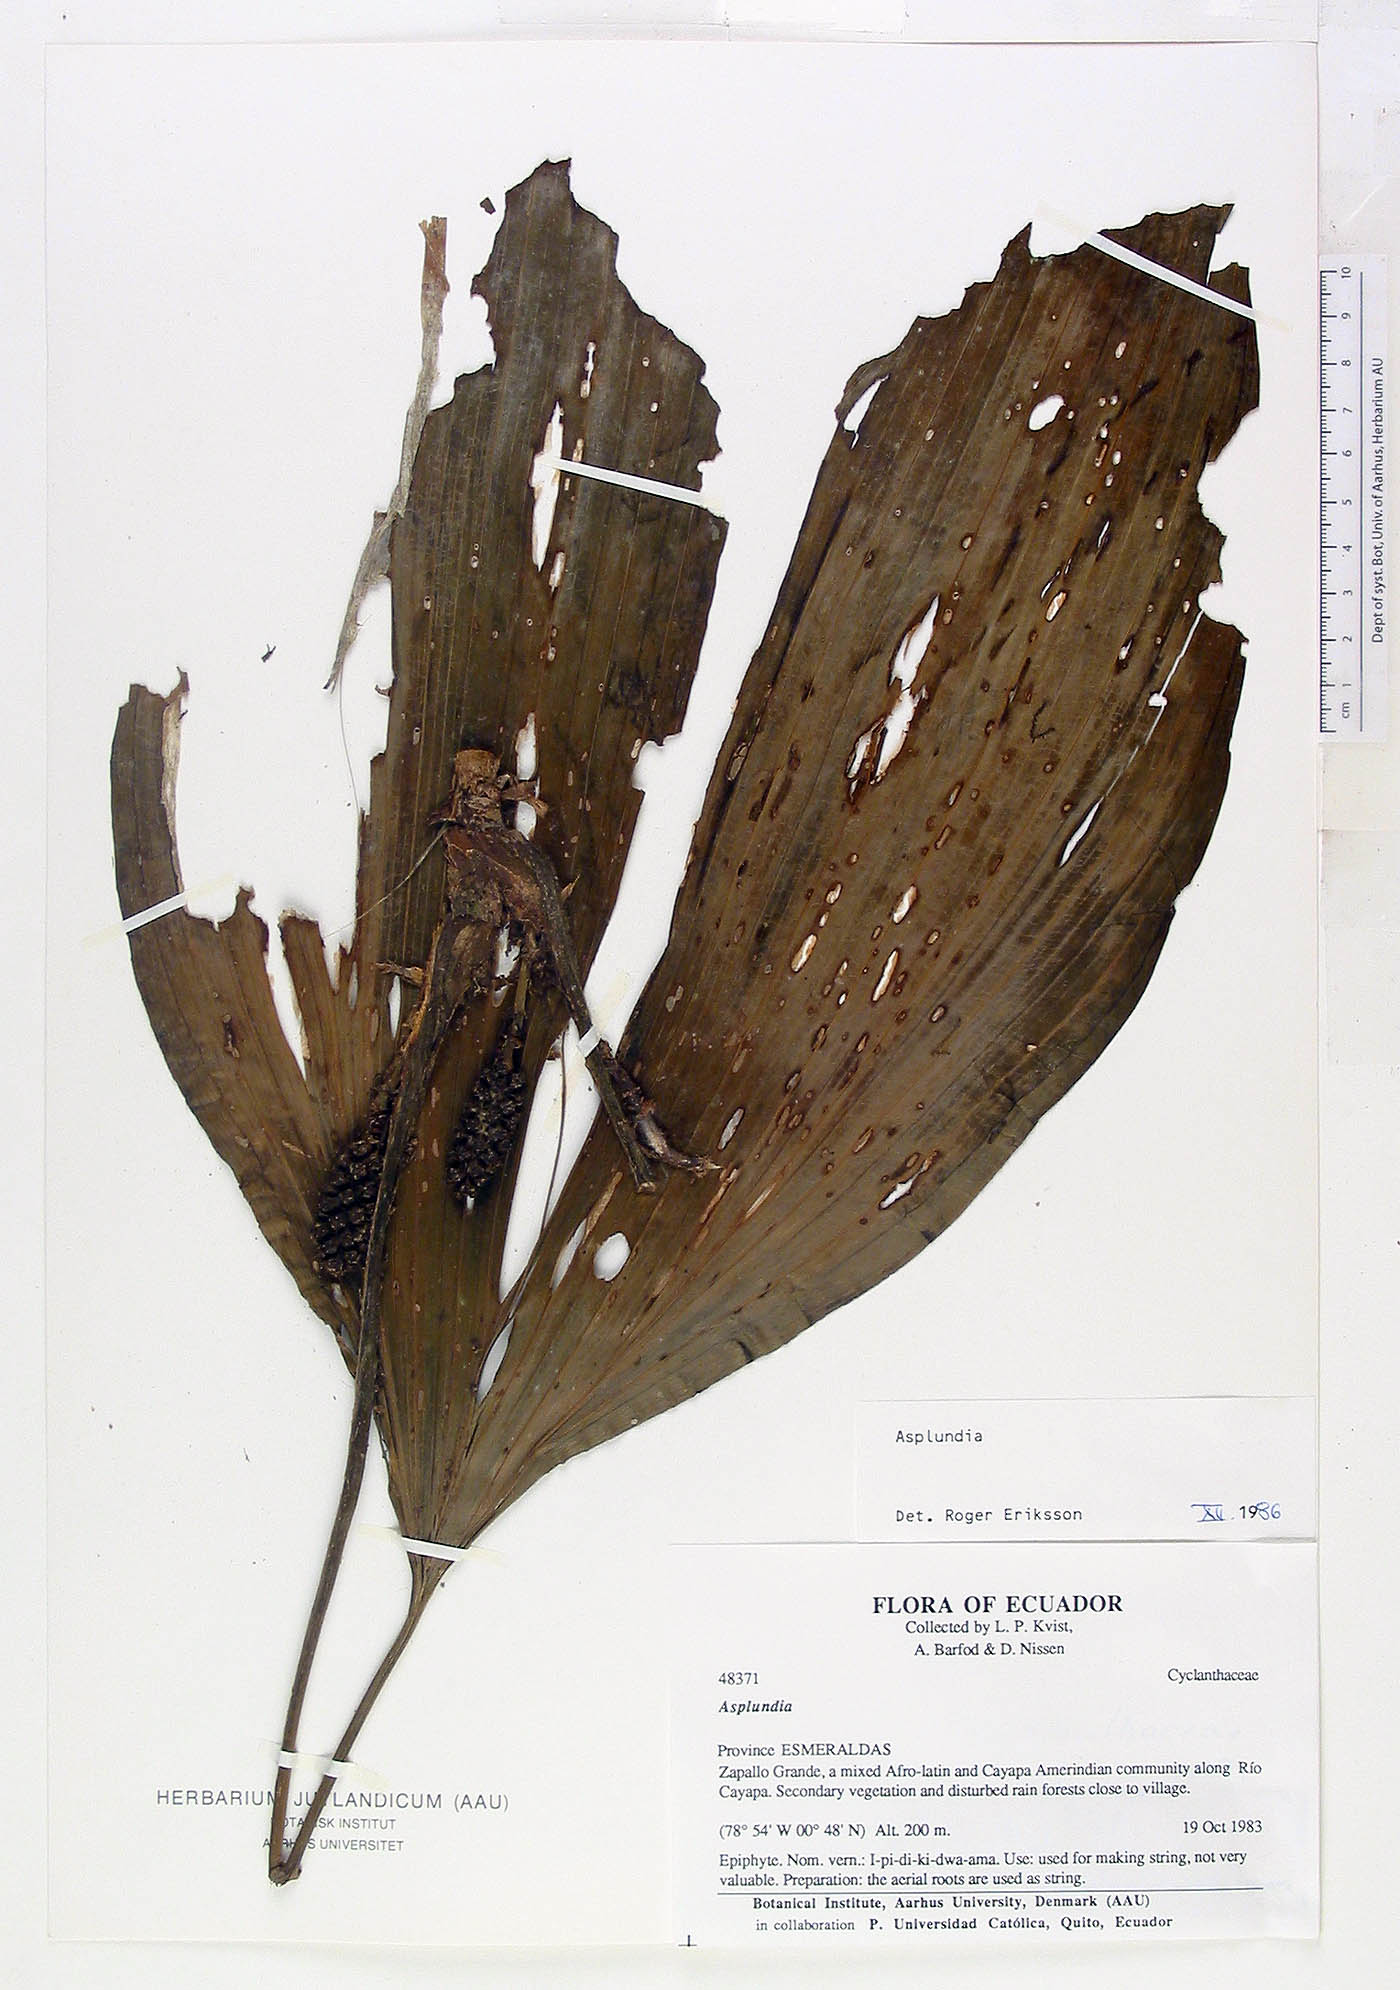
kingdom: Plantae
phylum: Tracheophyta
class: Liliopsida
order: Pandanales
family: Cyclanthaceae
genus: Asplundia
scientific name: Asplundia
